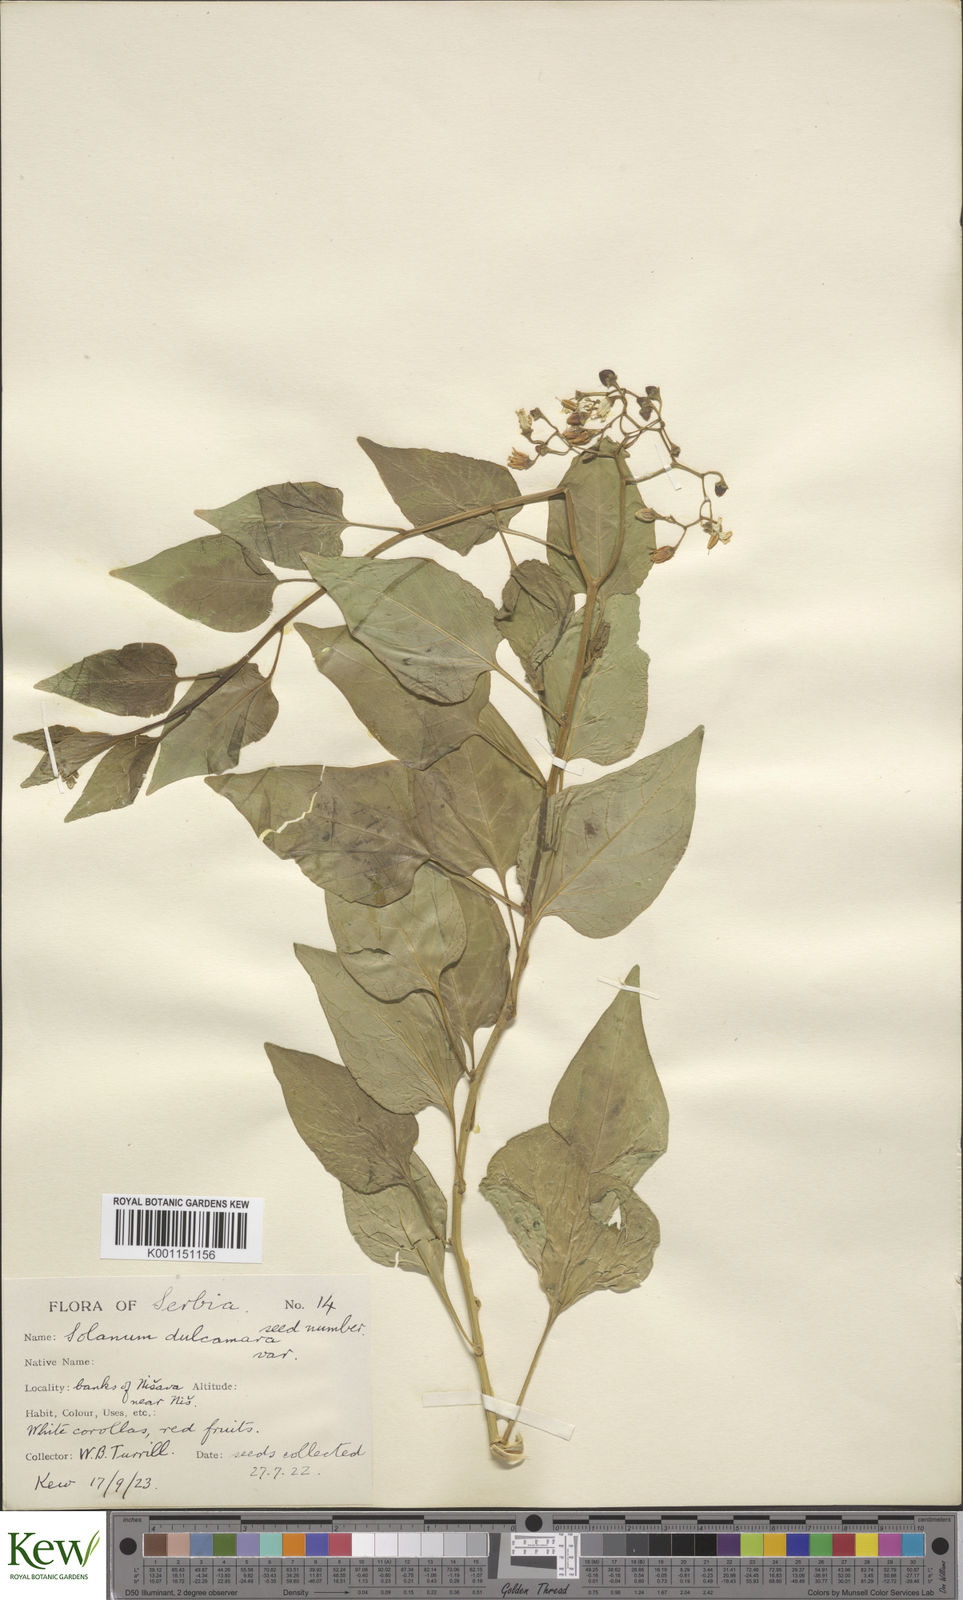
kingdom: Plantae
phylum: Tracheophyta
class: Magnoliopsida
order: Solanales
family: Solanaceae
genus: Solanum
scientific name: Solanum dulcamara
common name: Climbing nightshade
